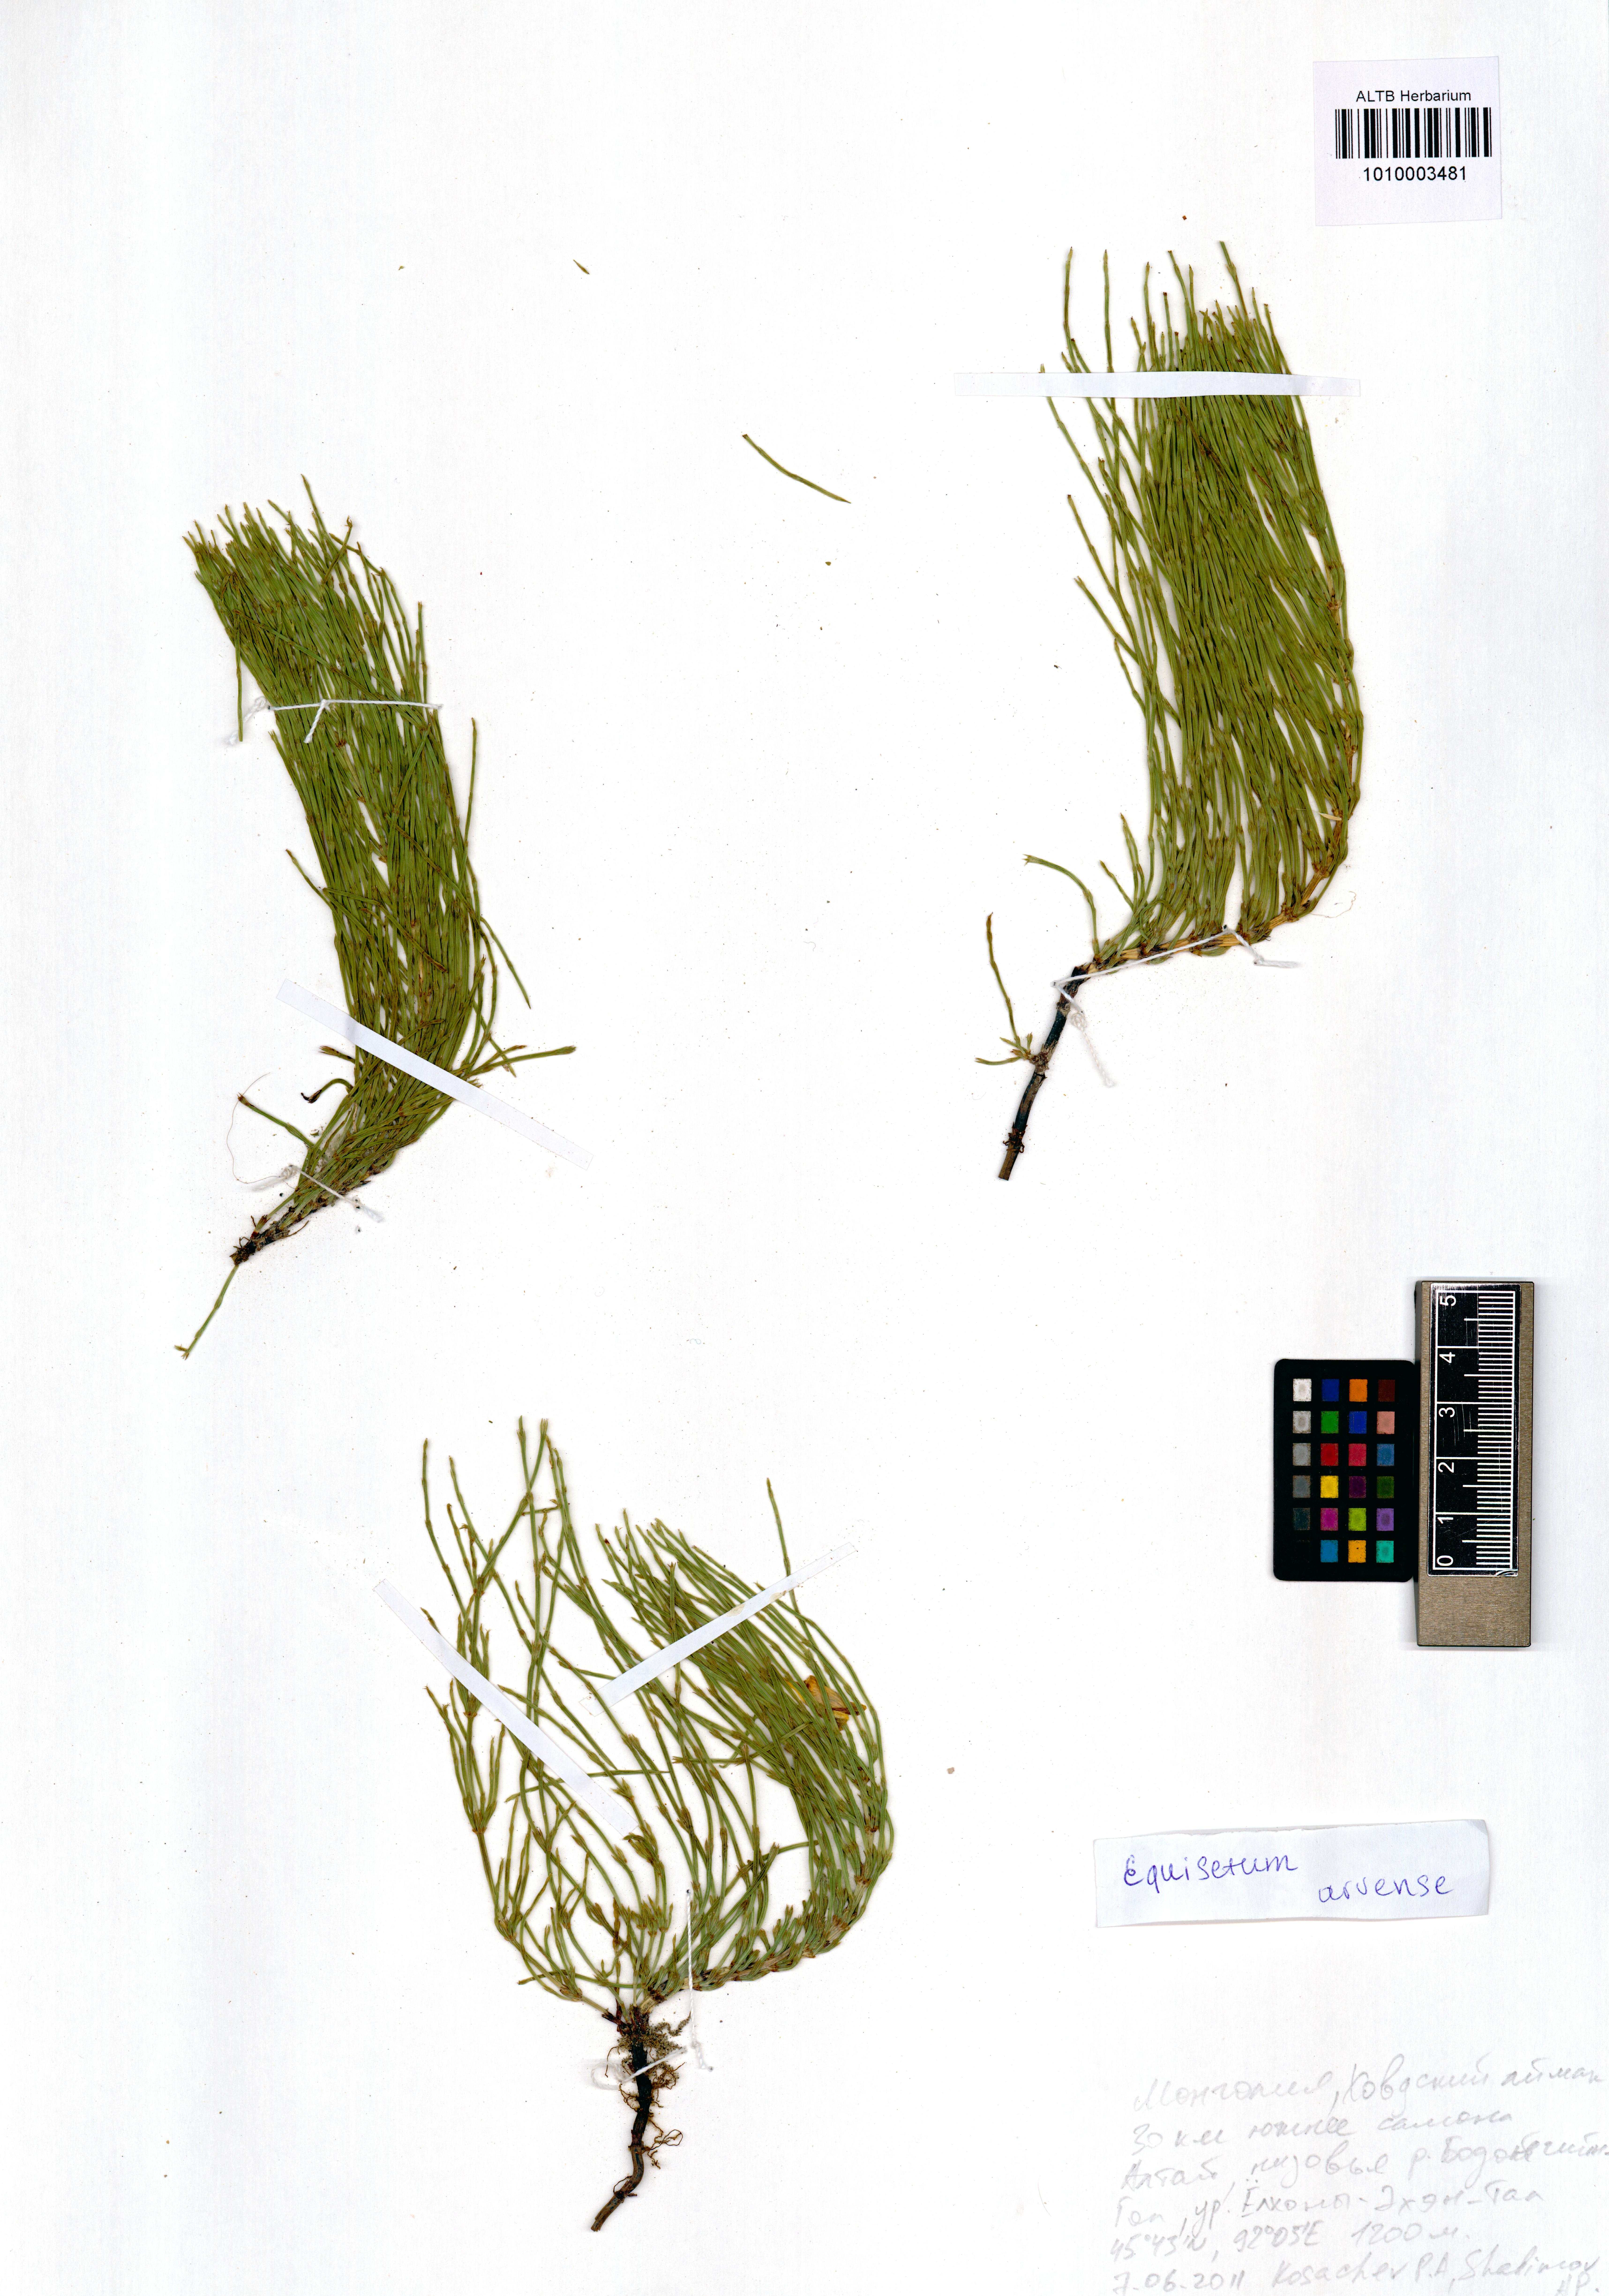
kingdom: Plantae
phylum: Tracheophyta
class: Polypodiopsida
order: Equisetales
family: Equisetaceae
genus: Equisetum
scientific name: Equisetum arvense
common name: Field horsetail
